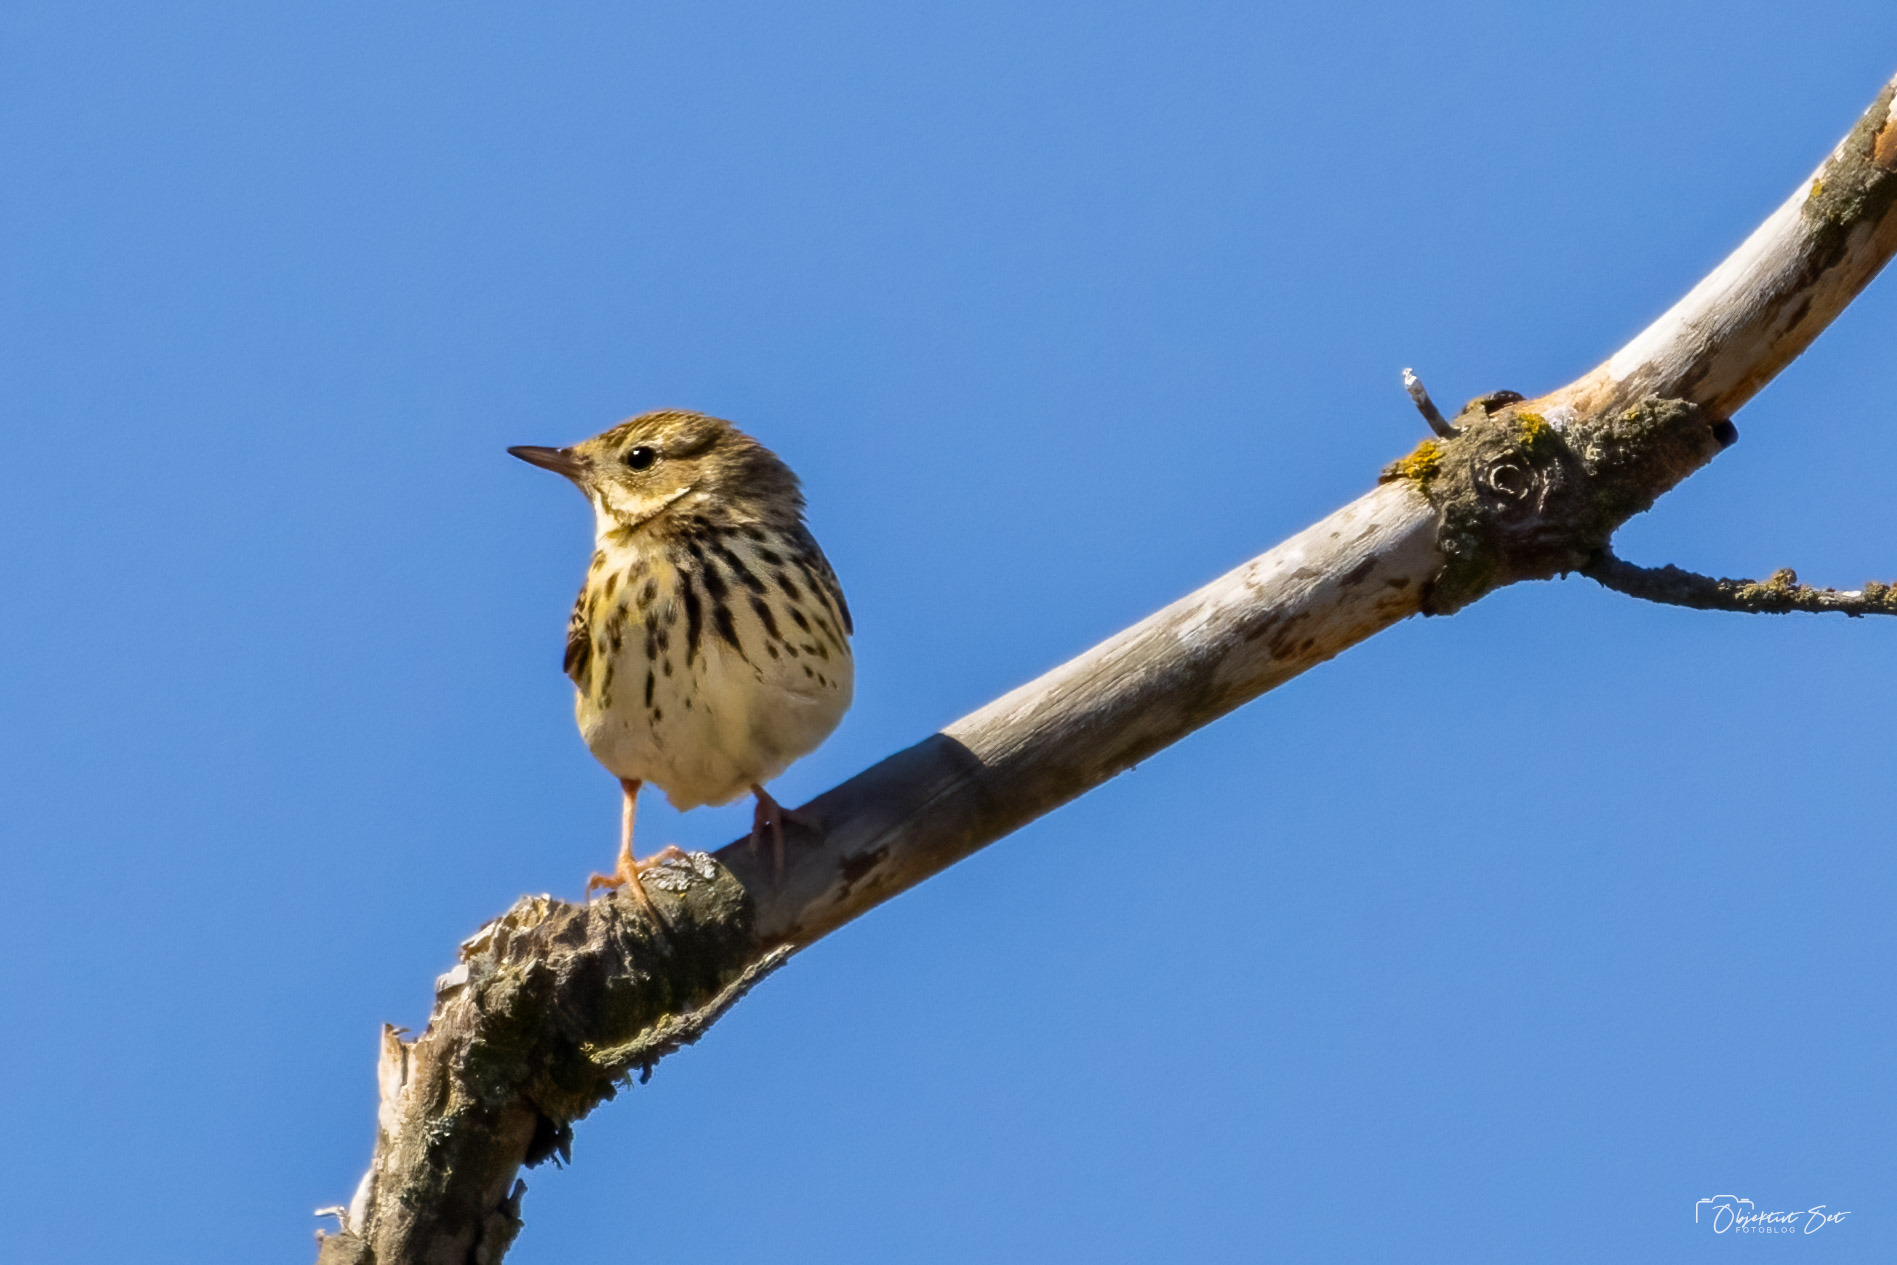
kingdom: Animalia
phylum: Chordata
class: Aves
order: Passeriformes
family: Motacillidae
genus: Anthus
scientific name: Anthus trivialis
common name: Skovpiber
